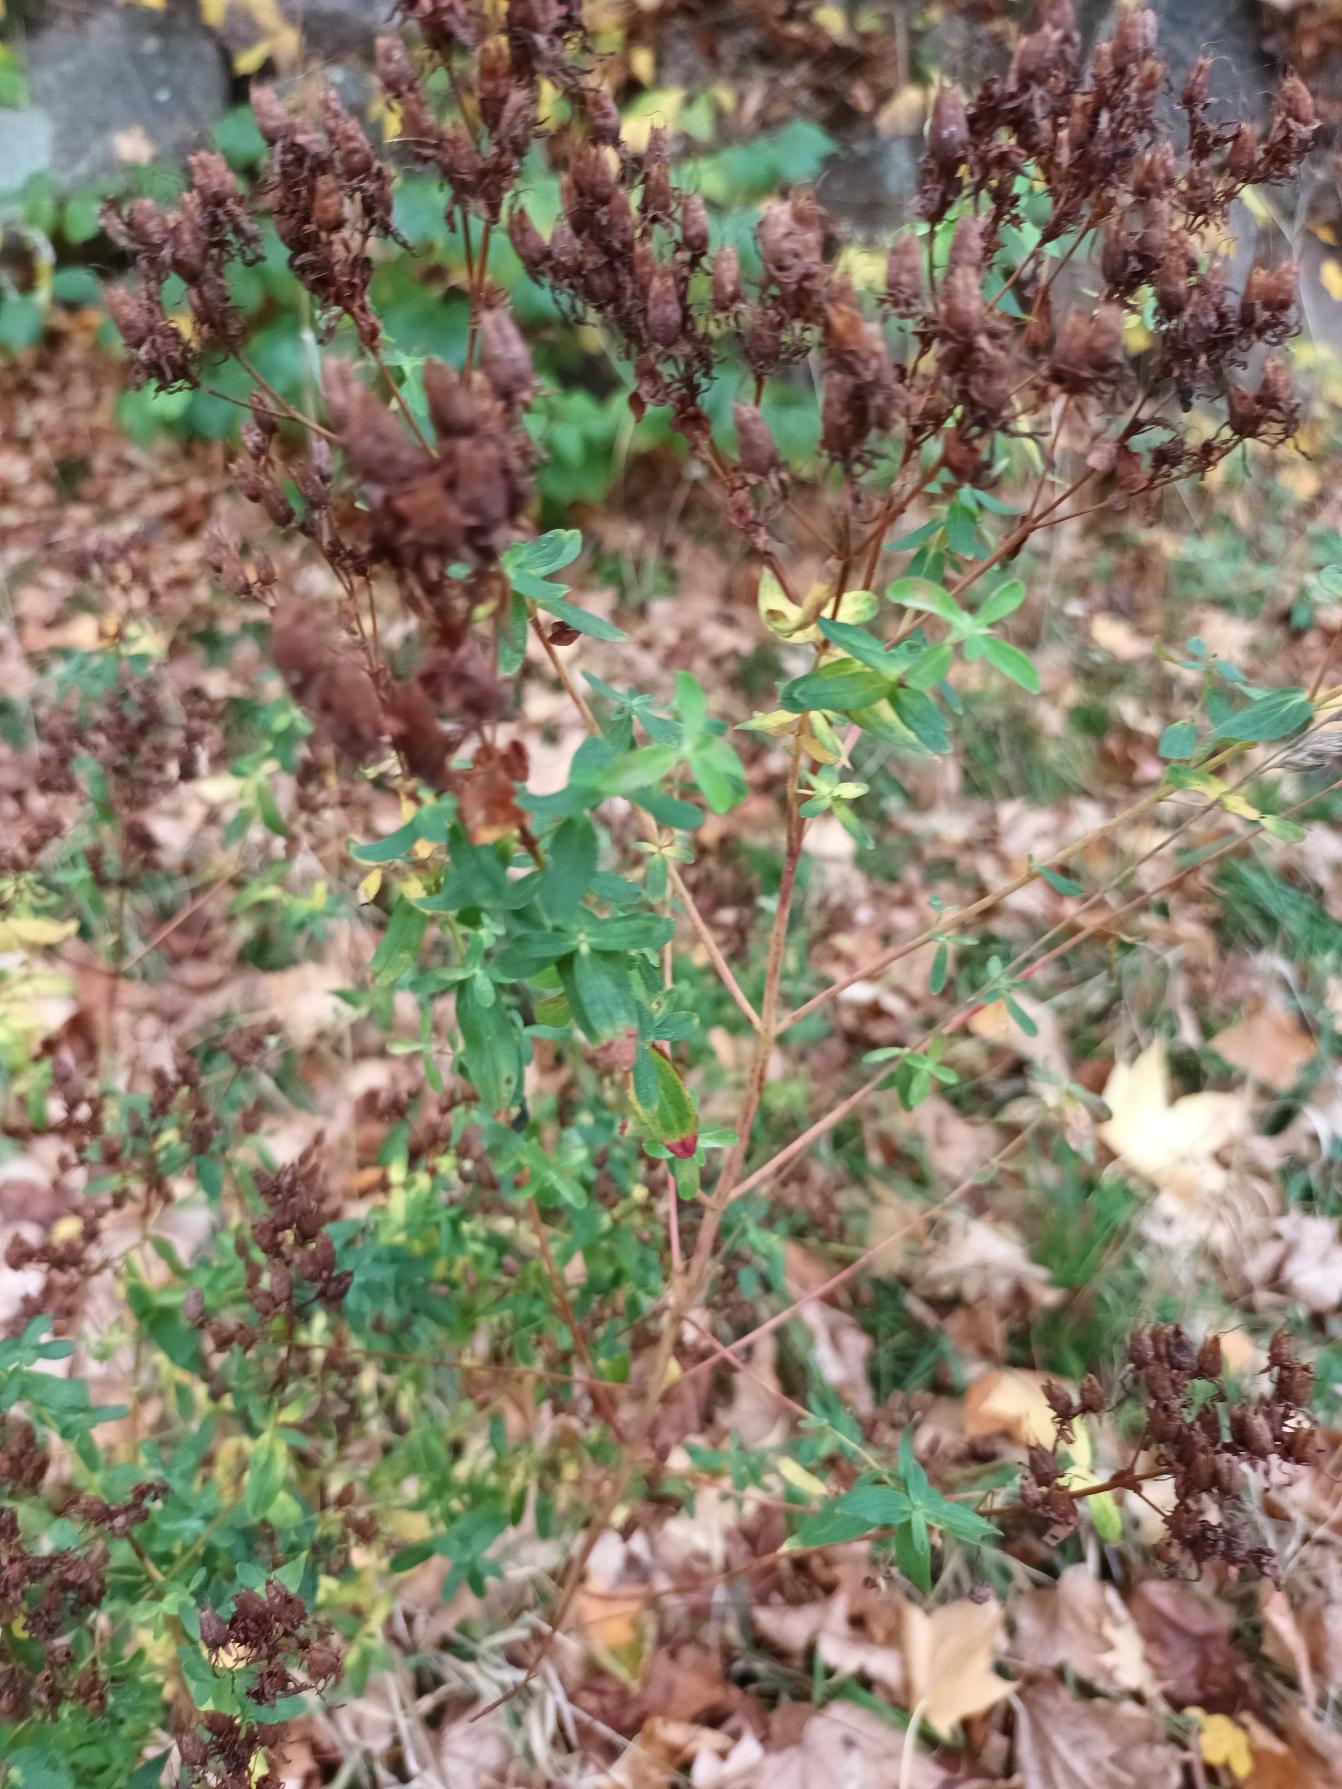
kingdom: Plantae
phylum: Tracheophyta
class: Magnoliopsida
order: Malpighiales
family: Hypericaceae
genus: Hypericum
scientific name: Hypericum perforatum
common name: Prikbladet perikon
